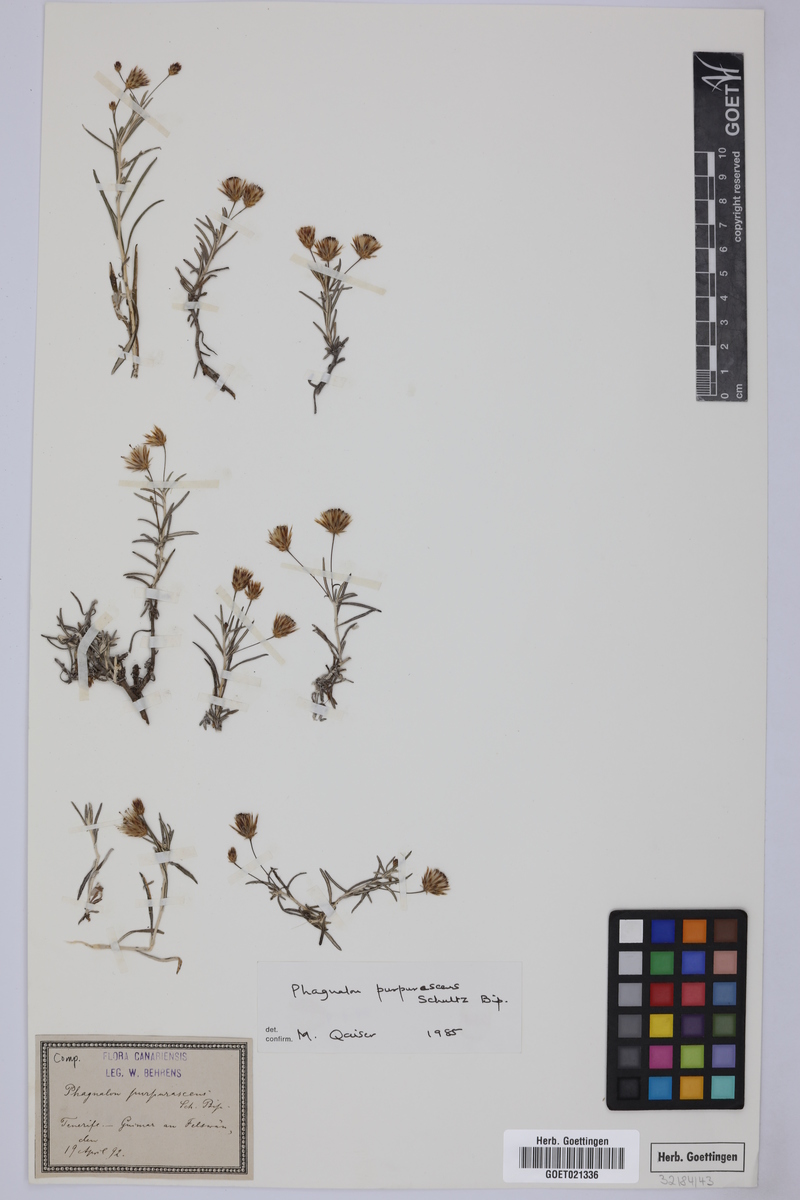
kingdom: Plantae
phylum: Tracheophyta
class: Magnoliopsida
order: Asterales
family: Asteraceae
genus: Phagnalon
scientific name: Phagnalon purpurascens
